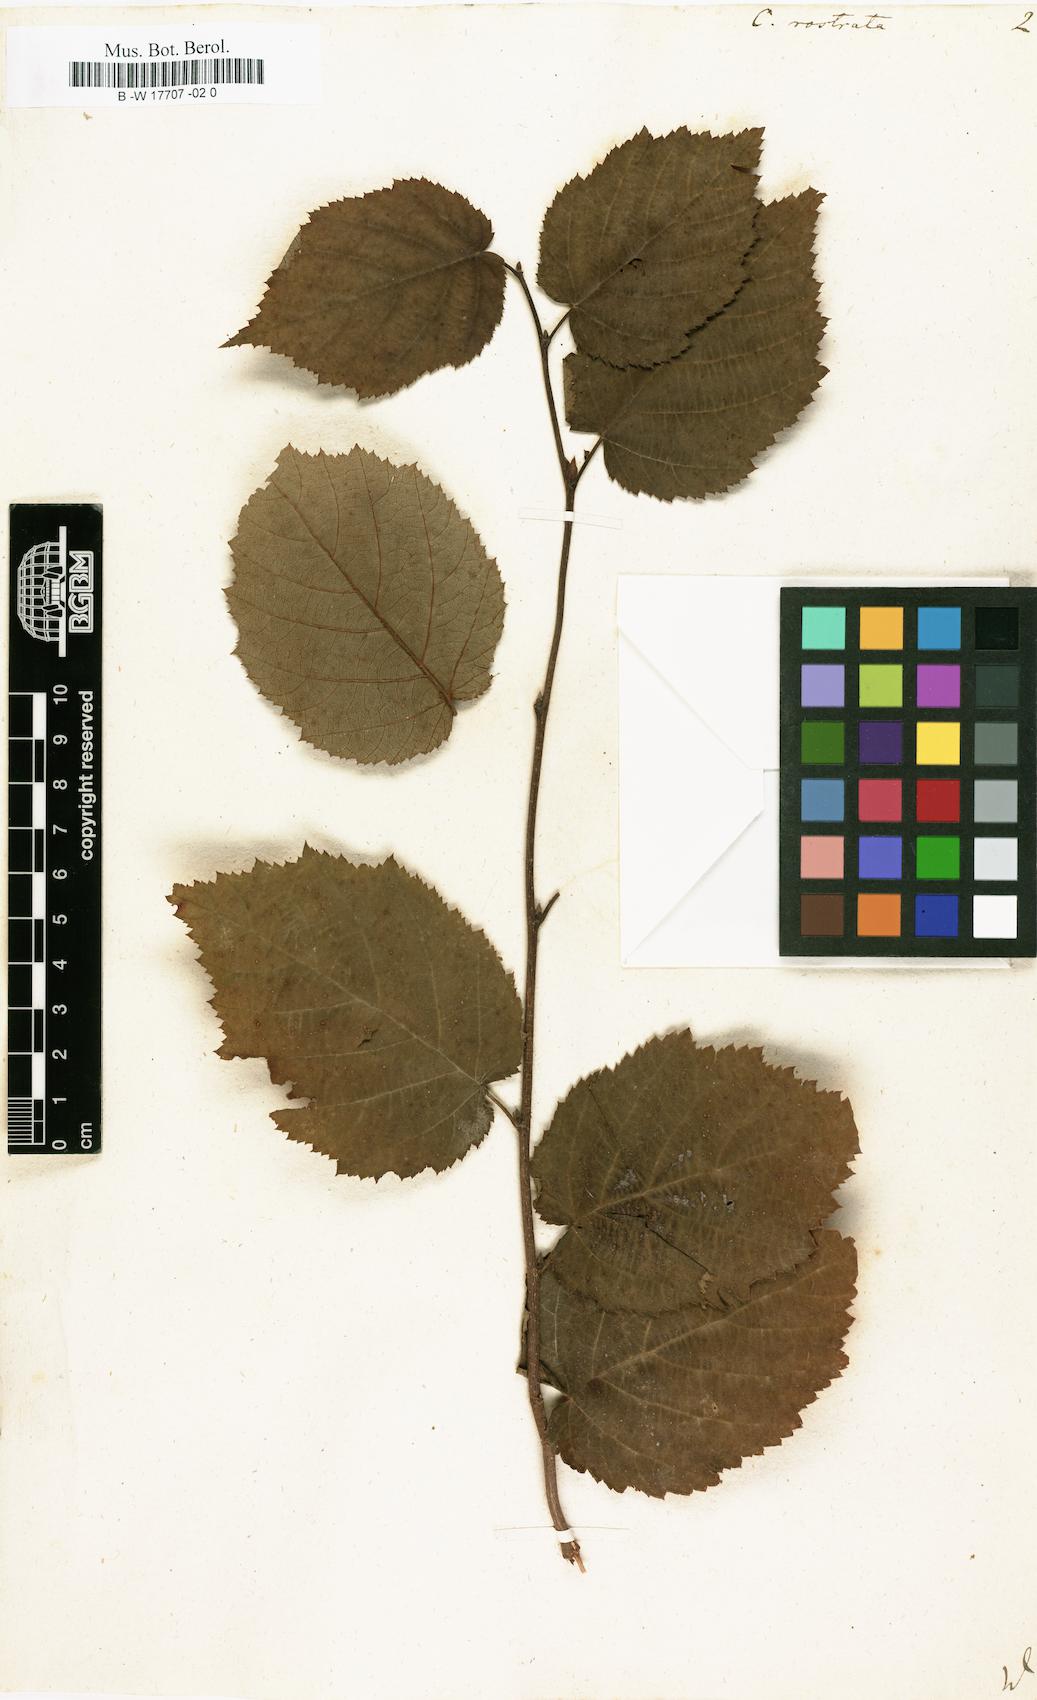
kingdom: Plantae
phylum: Tracheophyta
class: Magnoliopsida
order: Fagales
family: Betulaceae
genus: Corylus
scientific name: Corylus cornuta
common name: Beaked hazel
